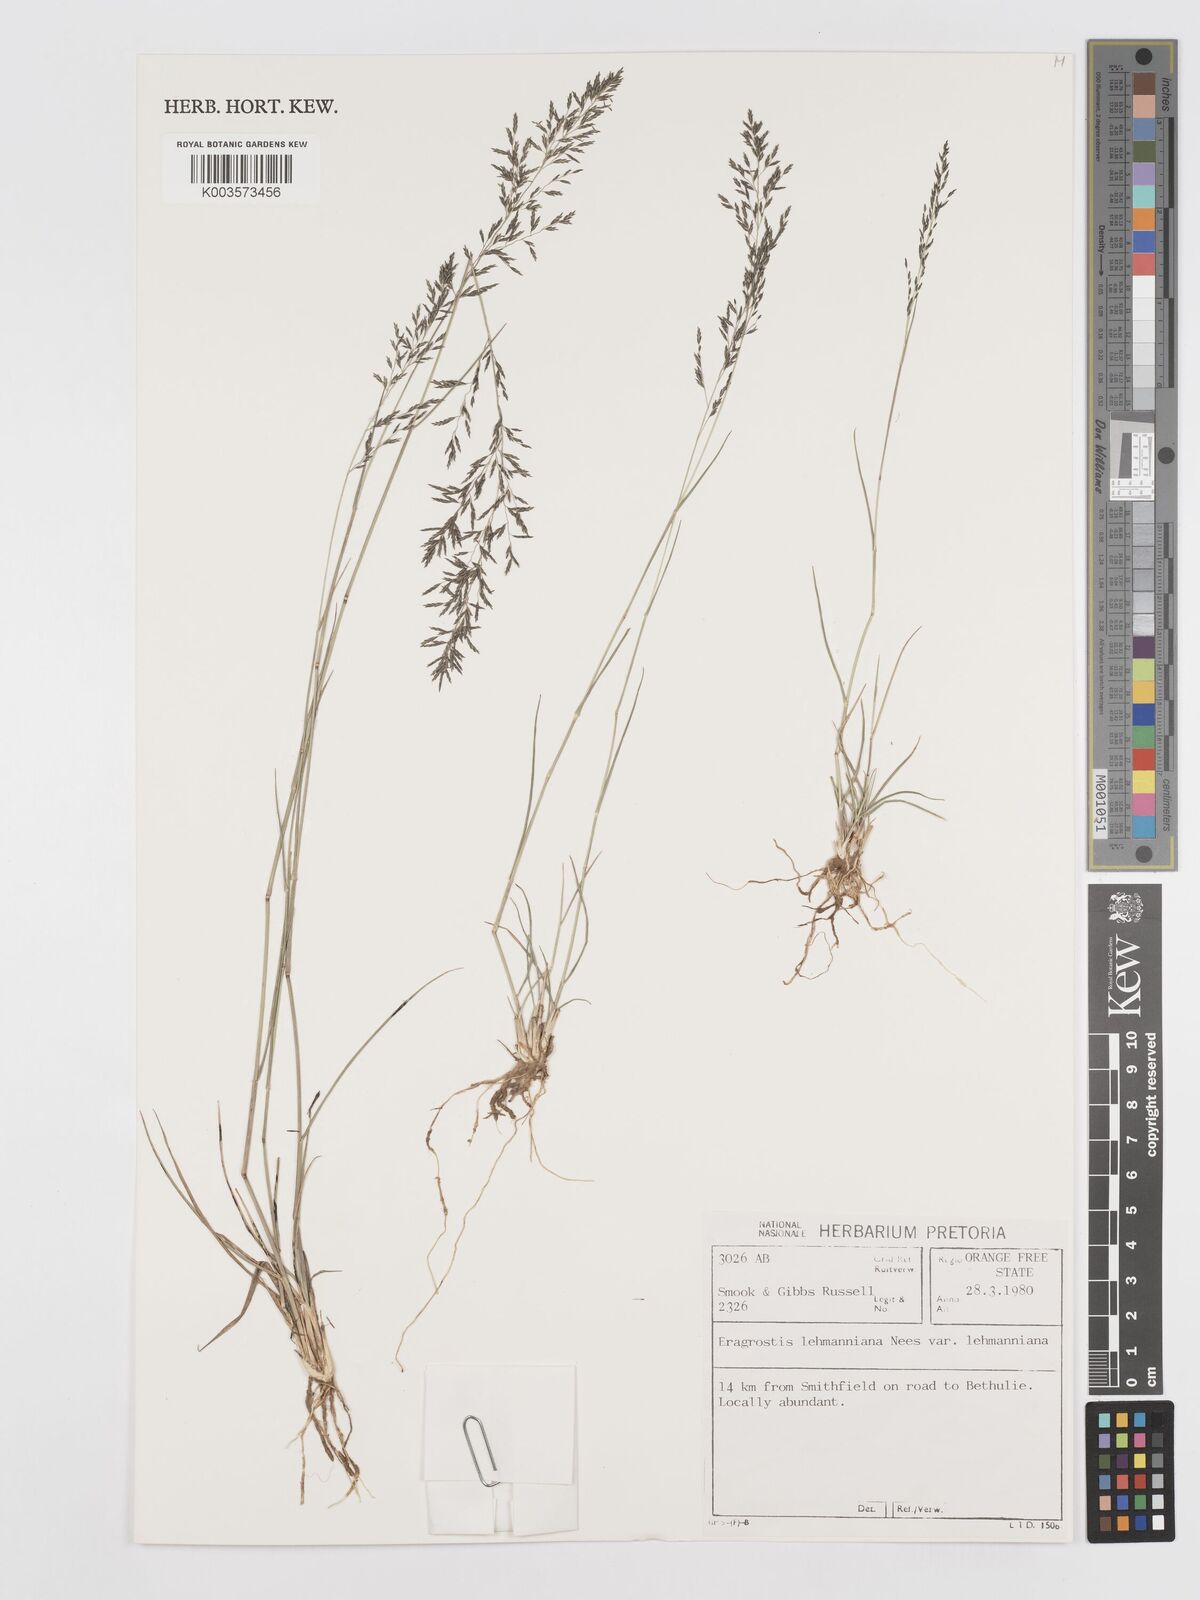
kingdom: Plantae
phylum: Tracheophyta
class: Liliopsida
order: Poales
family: Poaceae
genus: Eragrostis
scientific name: Eragrostis lehmanniana
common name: Lehmann lovegrass
